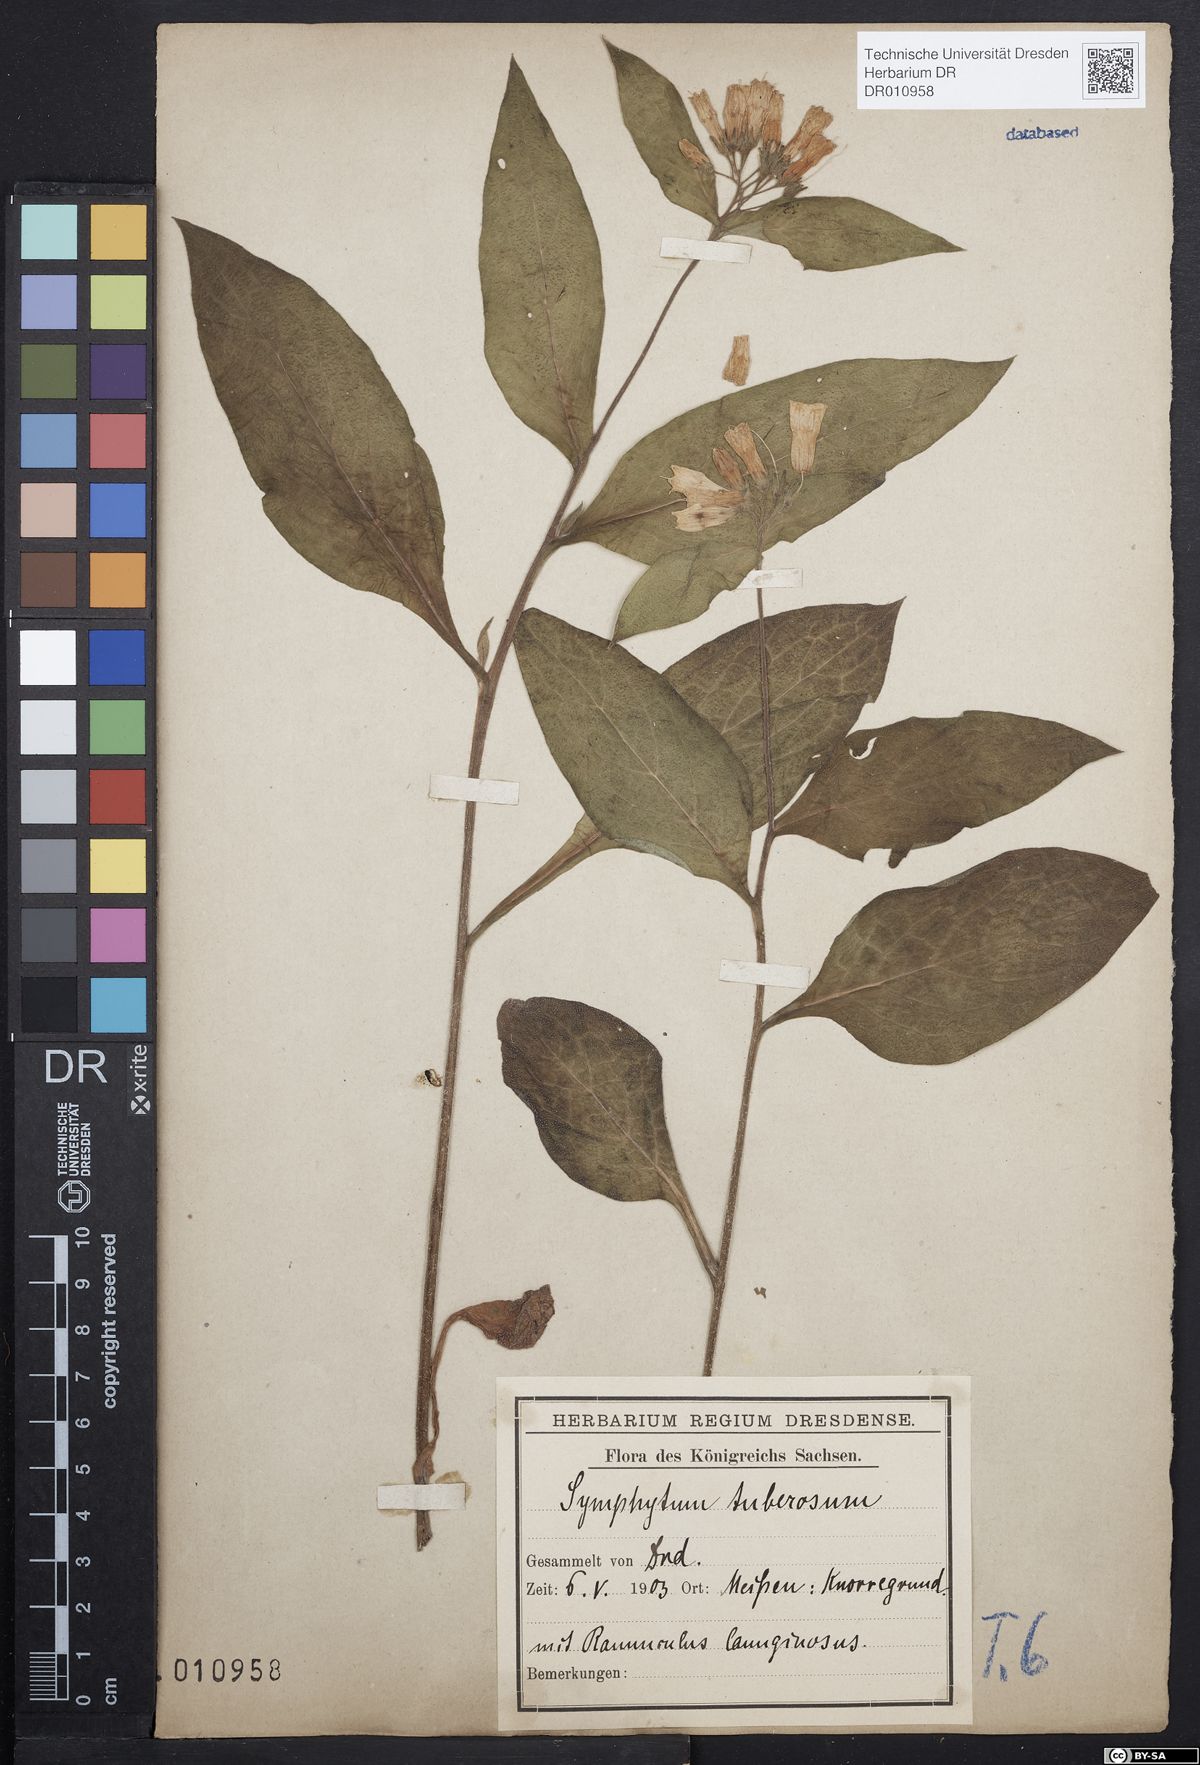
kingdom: Plantae
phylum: Tracheophyta
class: Magnoliopsida
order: Boraginales
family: Boraginaceae
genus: Symphytum
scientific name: Symphytum tuberosum
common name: Tuberous comfrey
